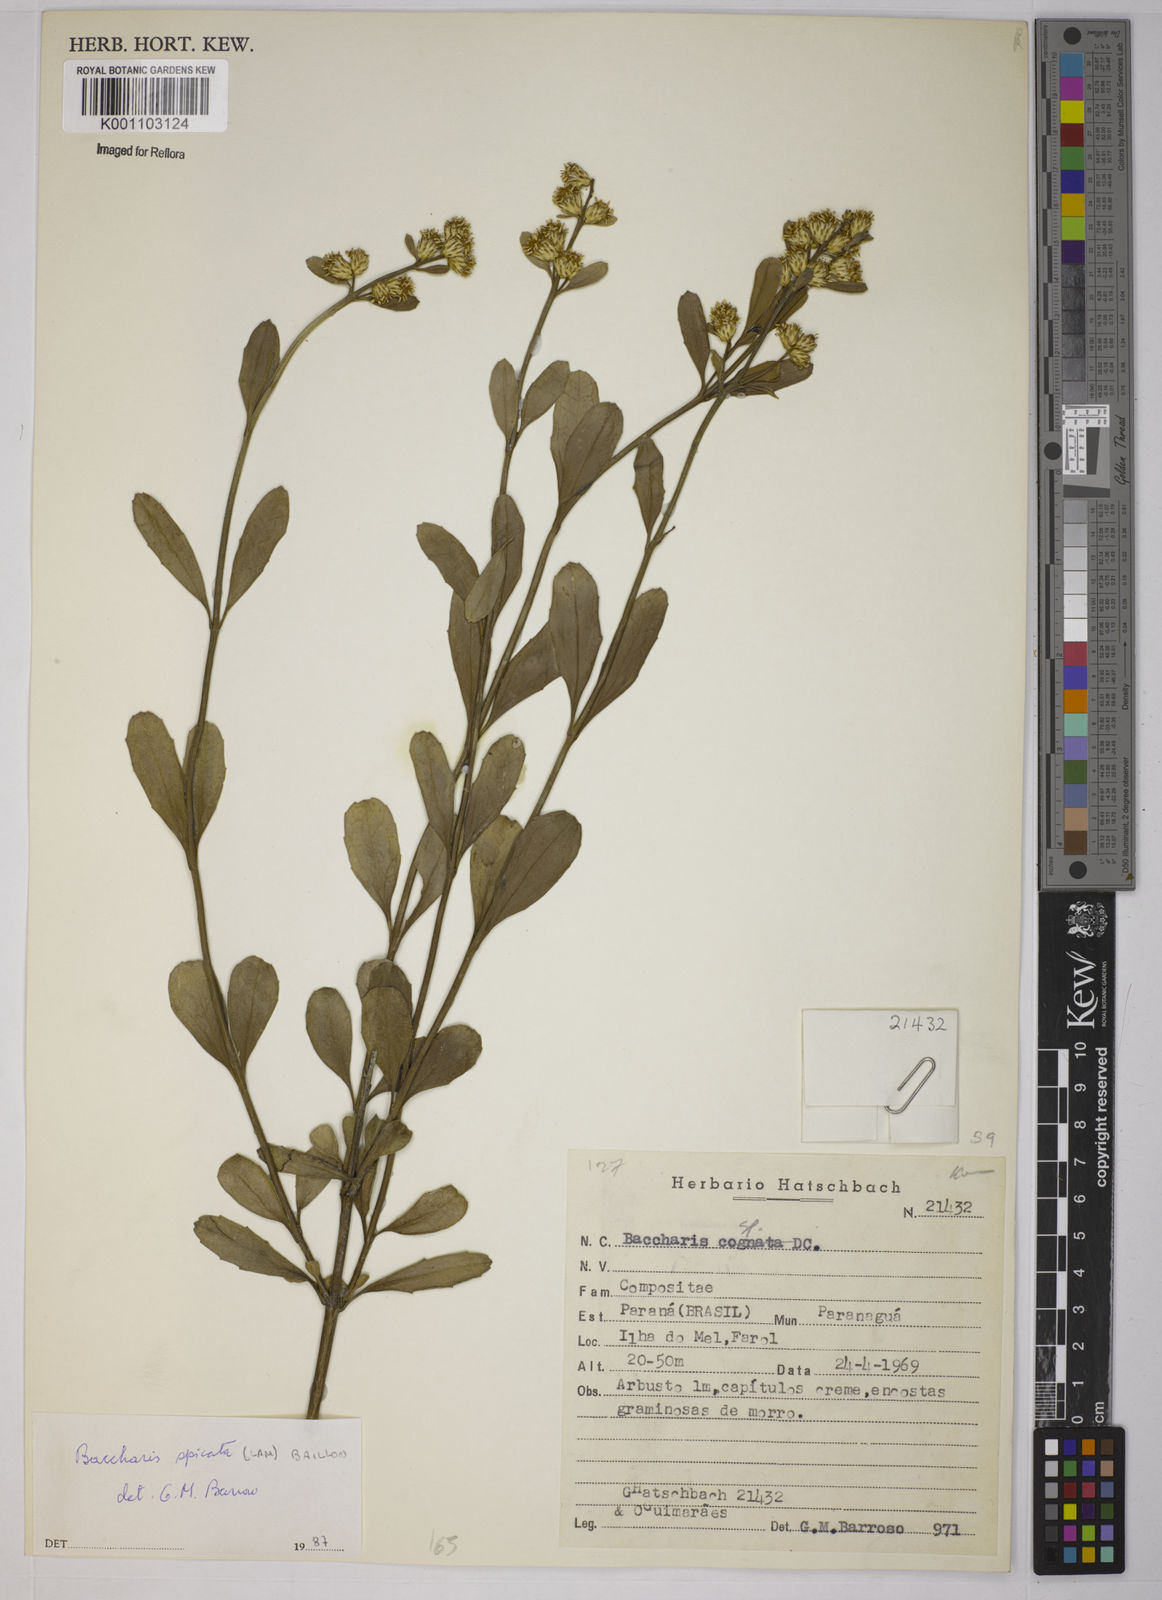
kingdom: Plantae
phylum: Tracheophyta
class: Magnoliopsida
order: Asterales
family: Asteraceae
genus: Baccharis
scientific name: Baccharis spicata
